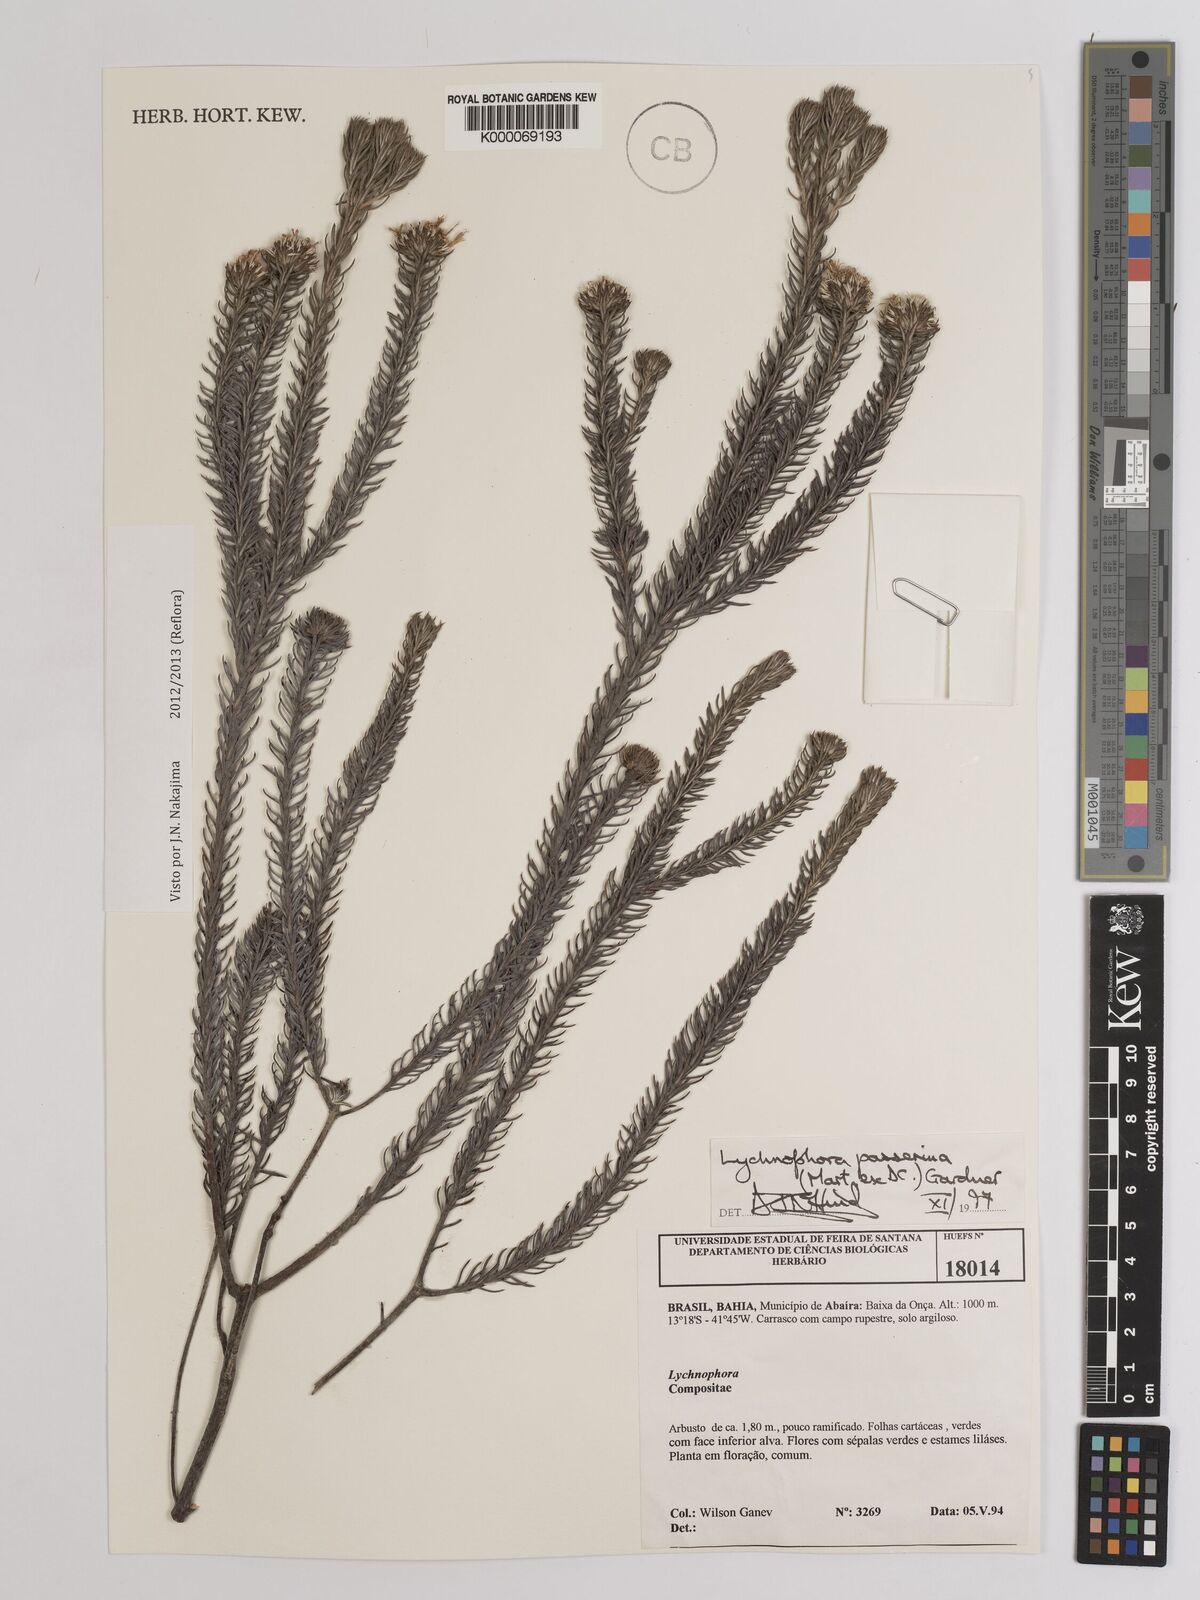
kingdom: Plantae
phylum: Tracheophyta
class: Magnoliopsida
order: Asterales
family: Asteraceae
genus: Lychnophora
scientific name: Lychnophora passerina
